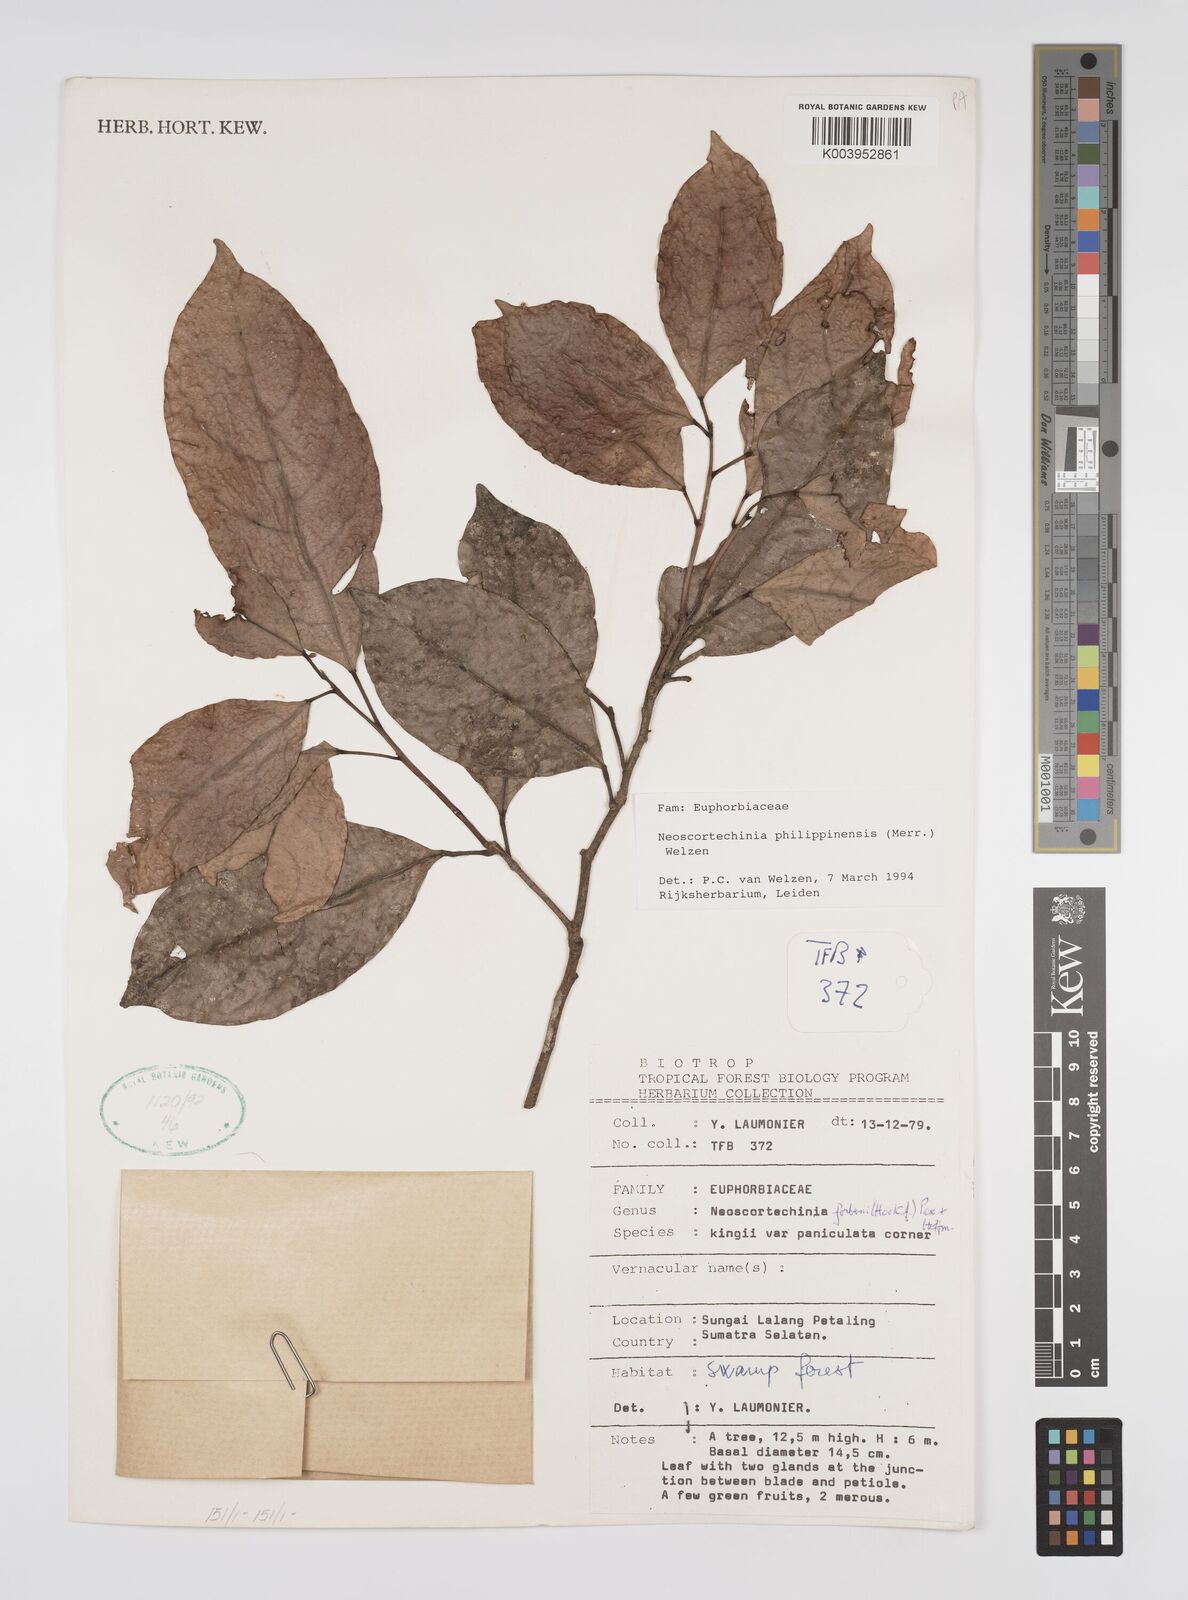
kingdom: Plantae
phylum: Tracheophyta
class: Magnoliopsida
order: Malpighiales
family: Euphorbiaceae
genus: Neoscortechinia
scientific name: Neoscortechinia philippinensis
